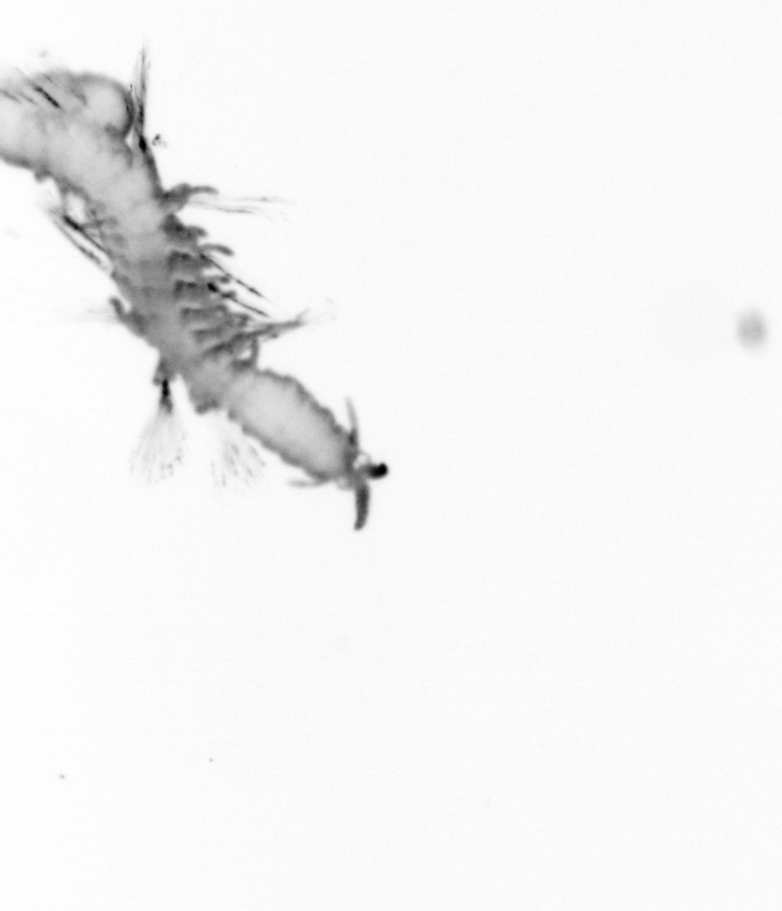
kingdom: Animalia
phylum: Annelida
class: Polychaeta
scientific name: Polychaeta
